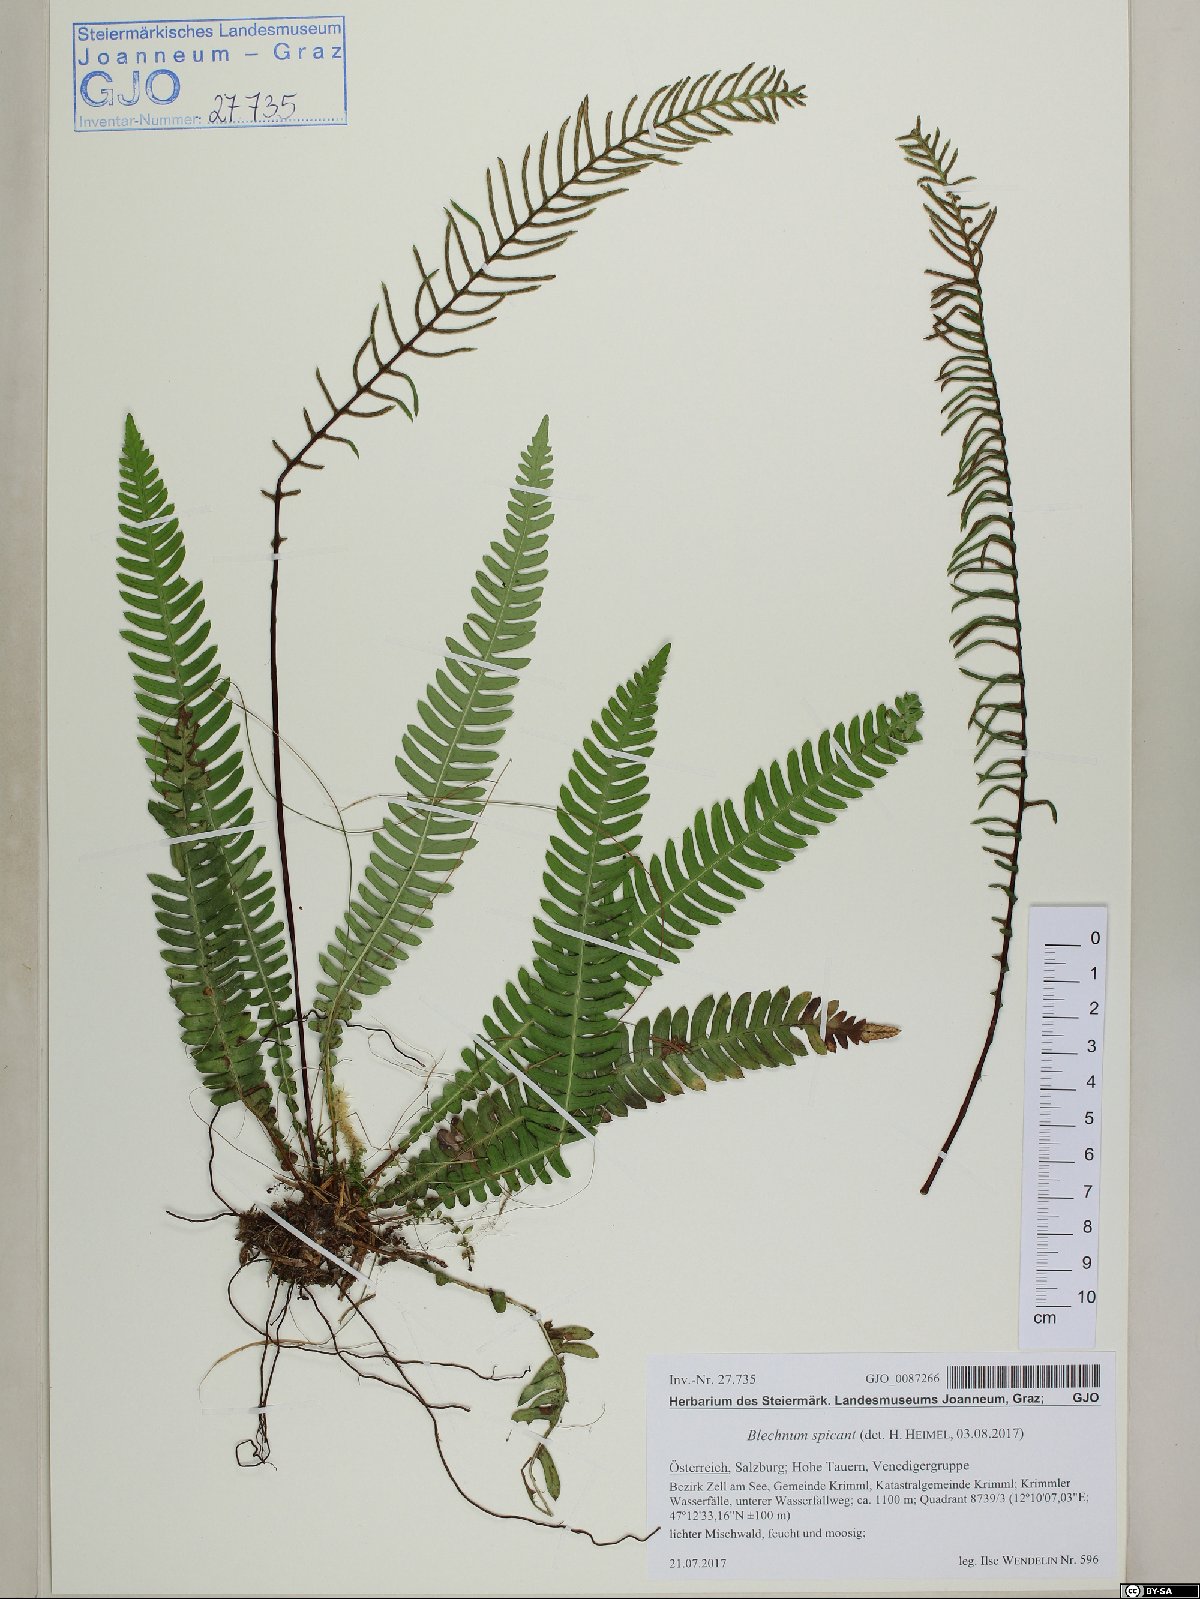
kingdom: Plantae
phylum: Tracheophyta
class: Polypodiopsida
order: Polypodiales
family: Blechnaceae
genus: Struthiopteris
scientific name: Struthiopteris spicant
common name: Deer fern
